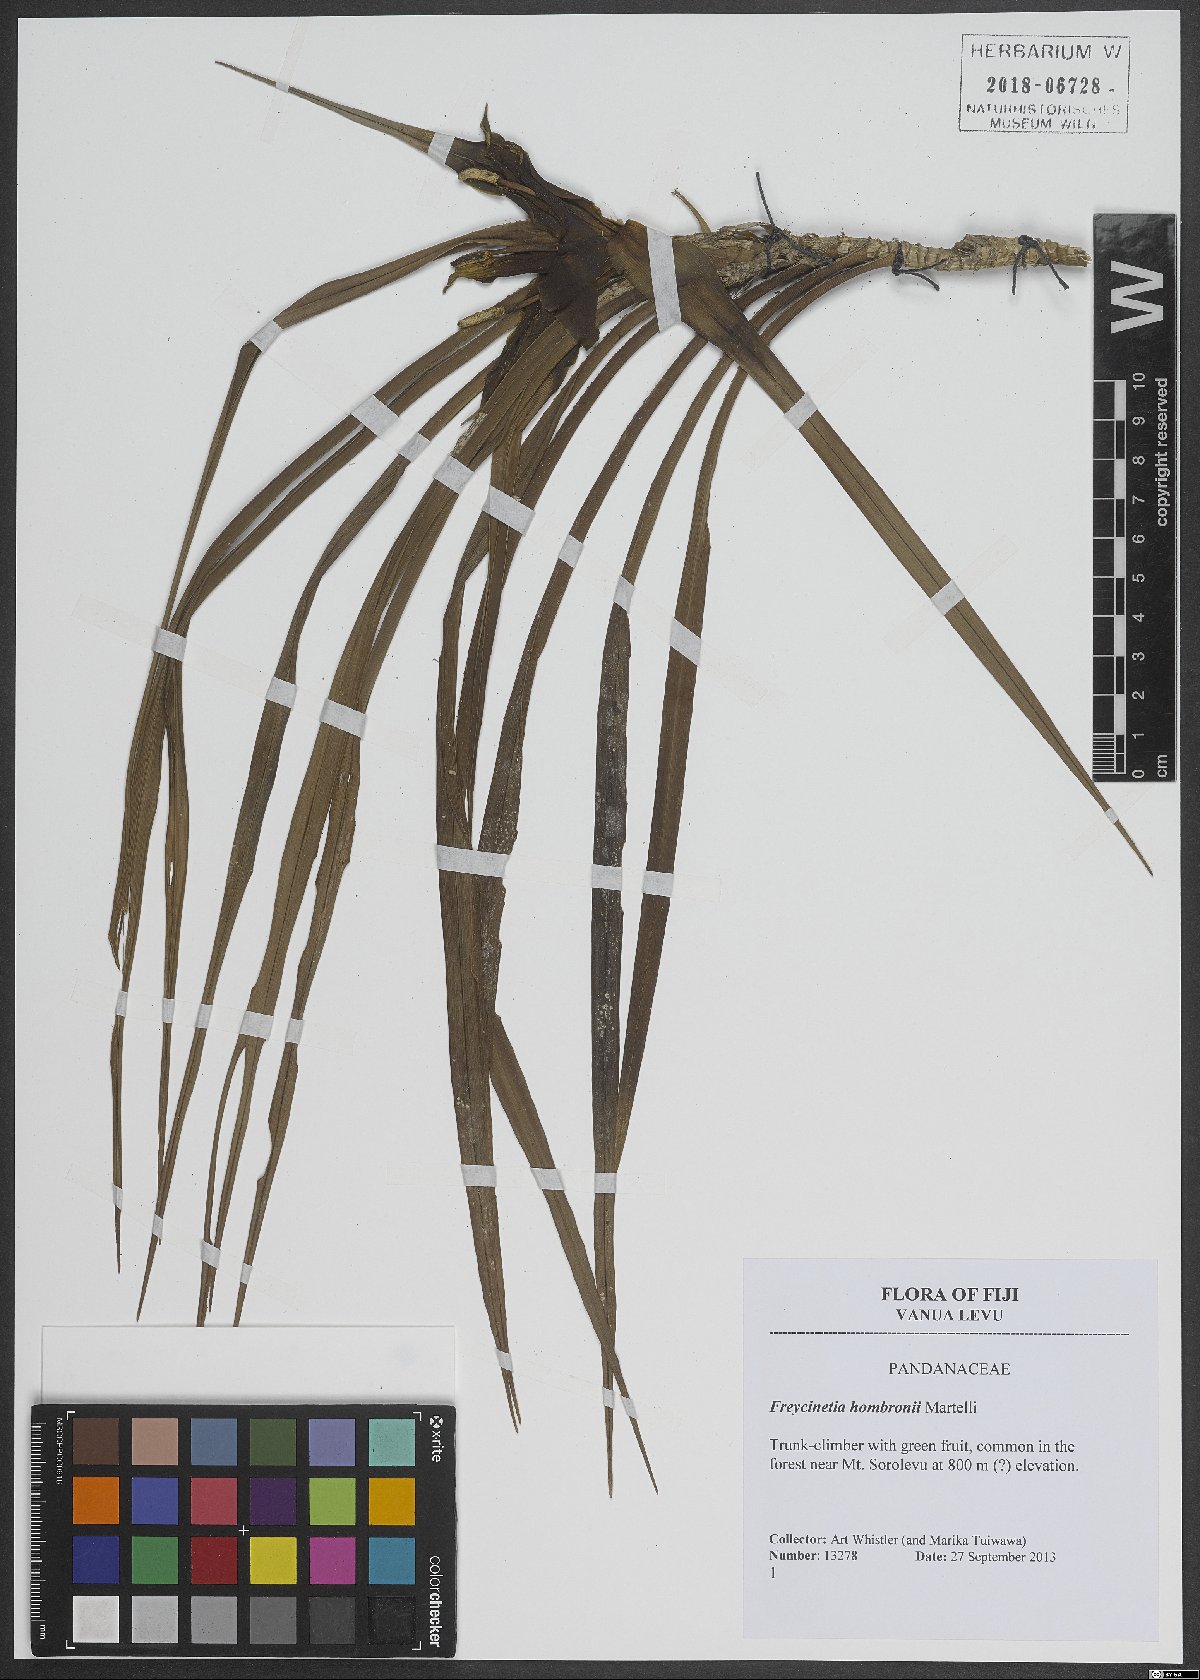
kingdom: Plantae
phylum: Tracheophyta
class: Liliopsida
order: Pandanales
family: Pandanaceae
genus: Freycinetia
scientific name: Freycinetia hombronii
